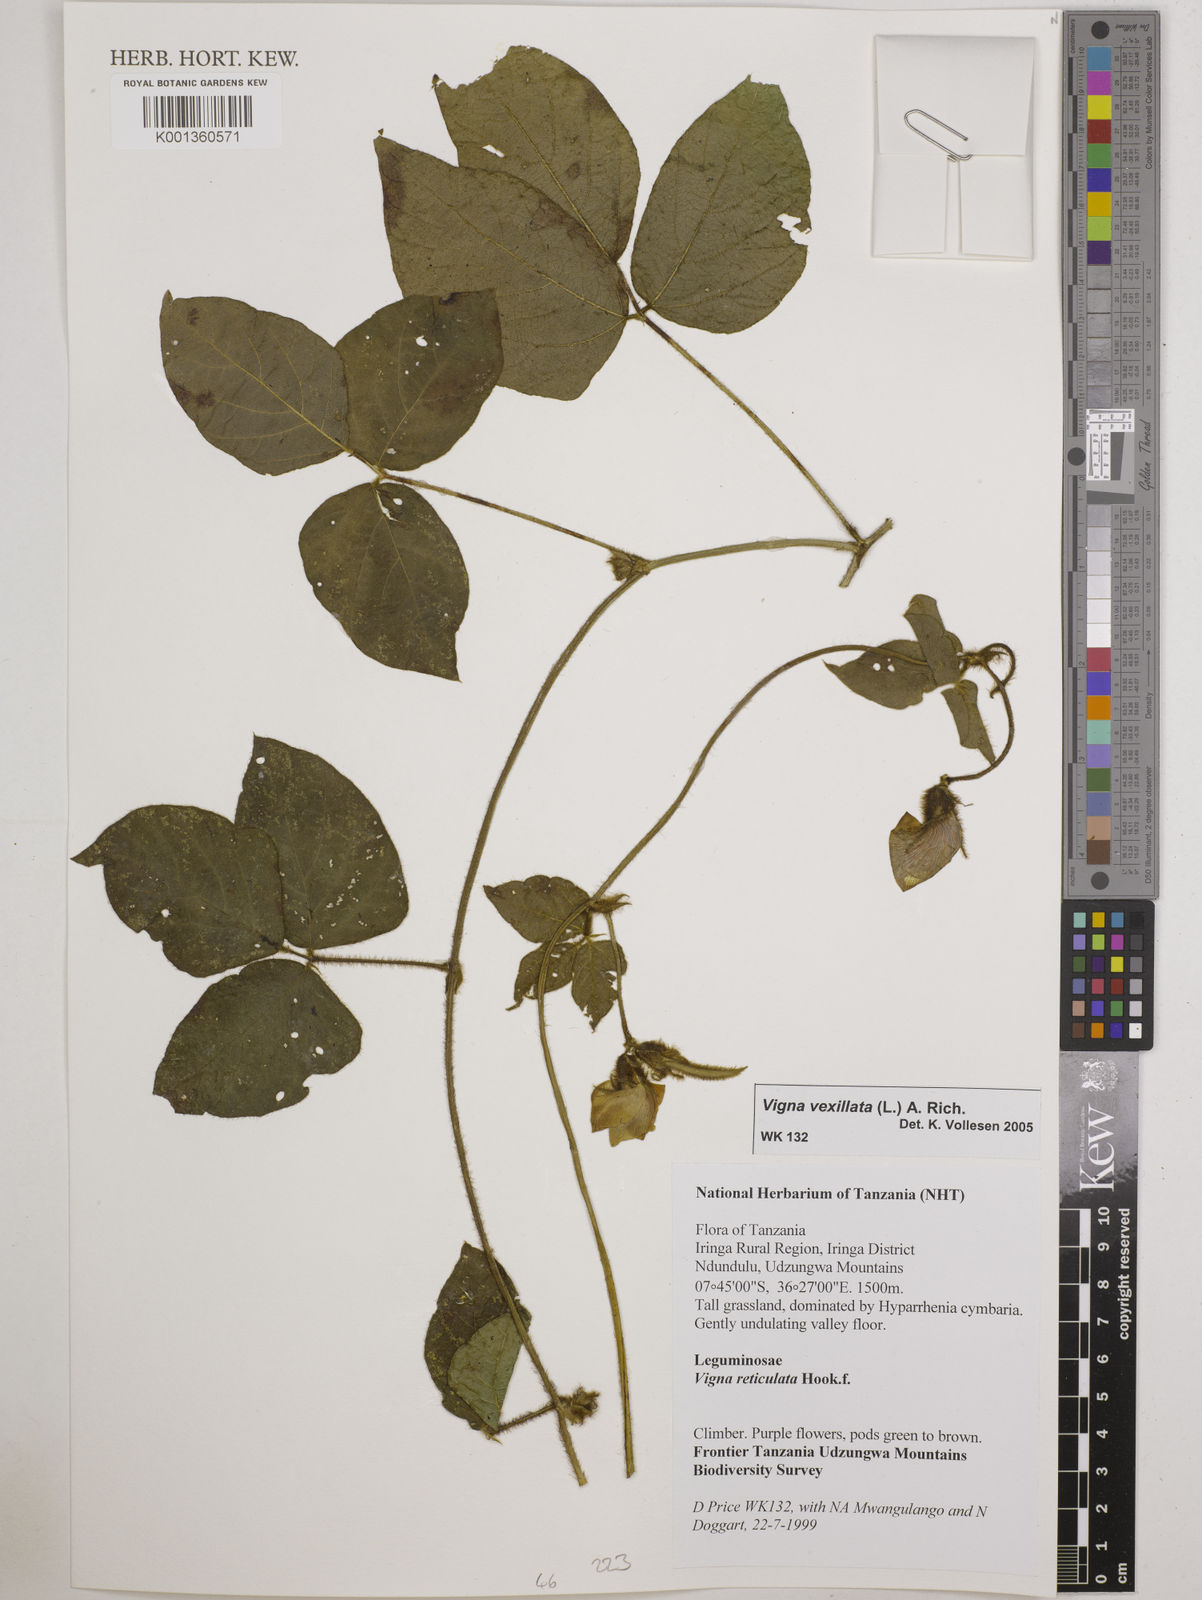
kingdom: Plantae
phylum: Tracheophyta
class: Magnoliopsida
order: Fabales
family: Fabaceae
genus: Vigna
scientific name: Vigna vexillata
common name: Zombi pea
